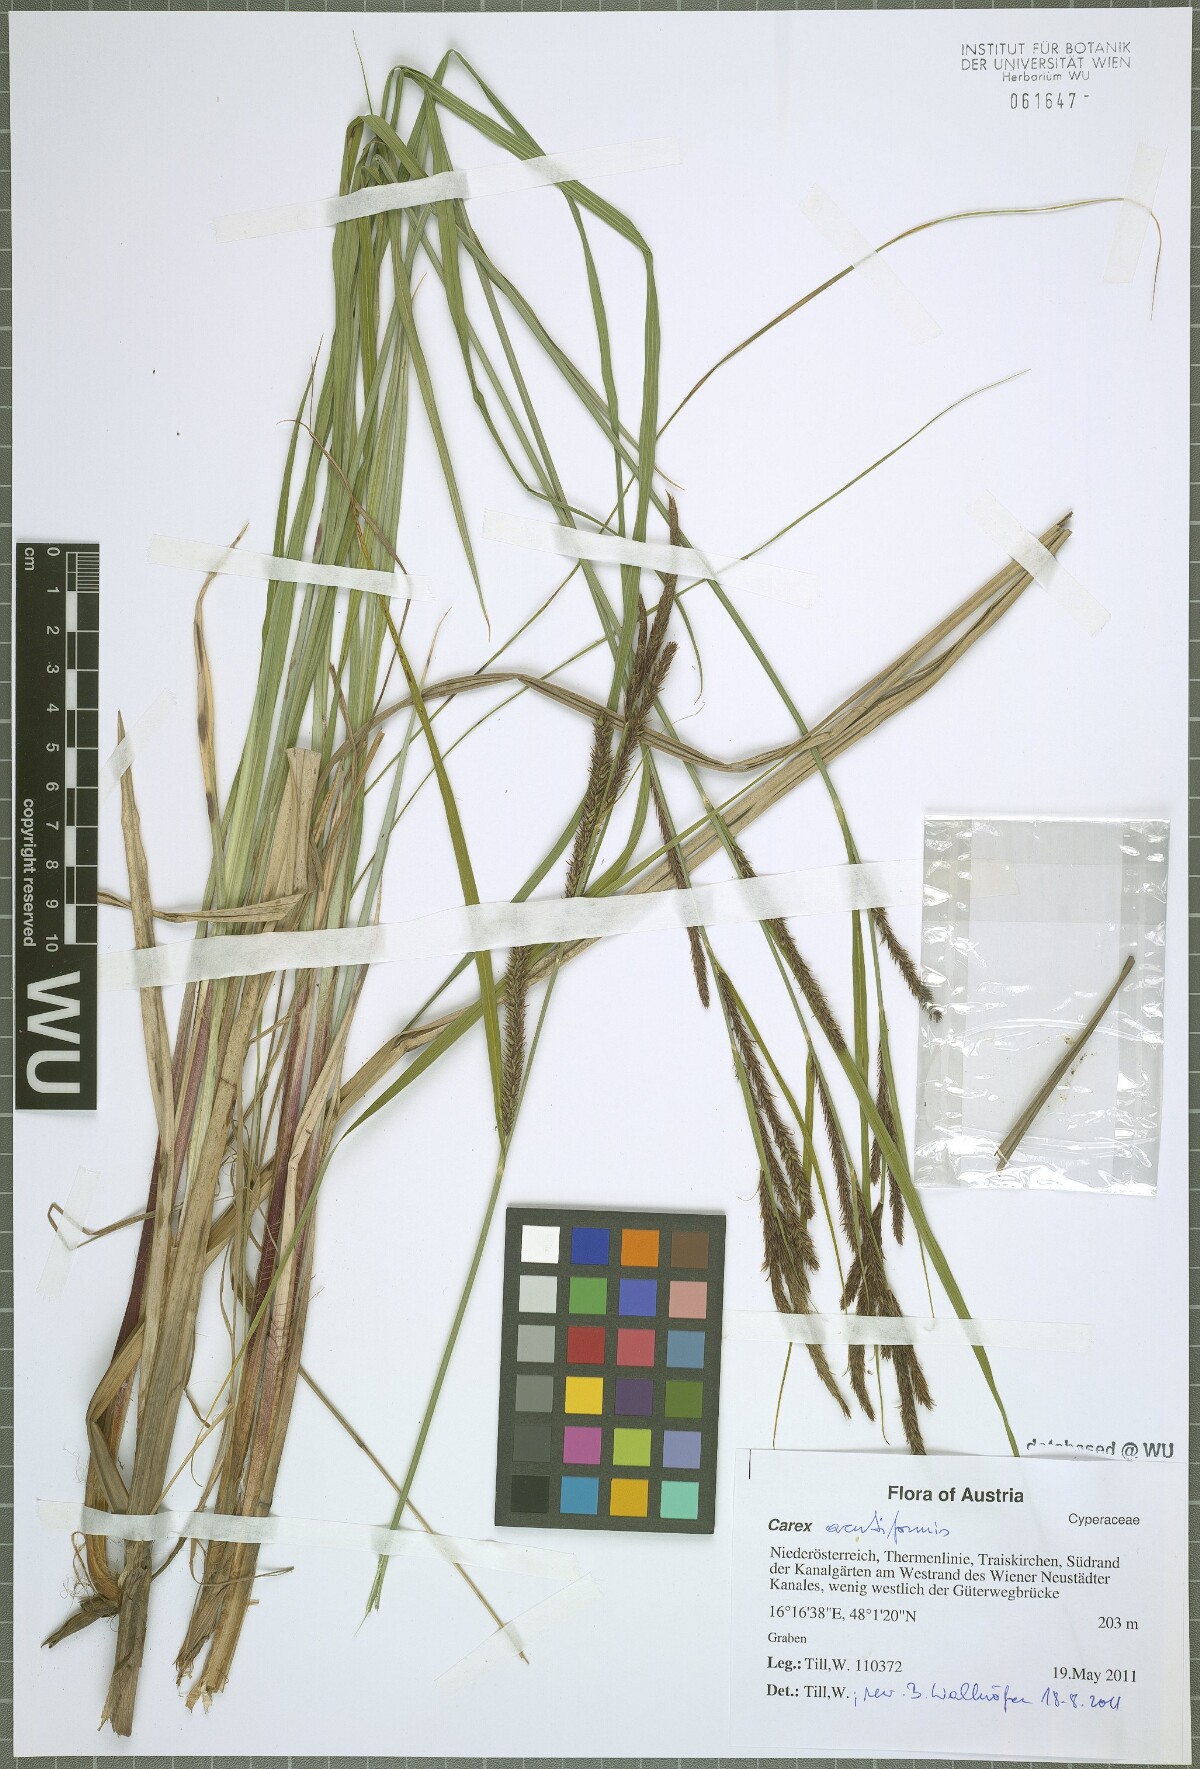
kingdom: Plantae
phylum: Tracheophyta
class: Liliopsida
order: Poales
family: Cyperaceae
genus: Carex
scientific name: Carex acutiformis
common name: Lesser pond-sedge
